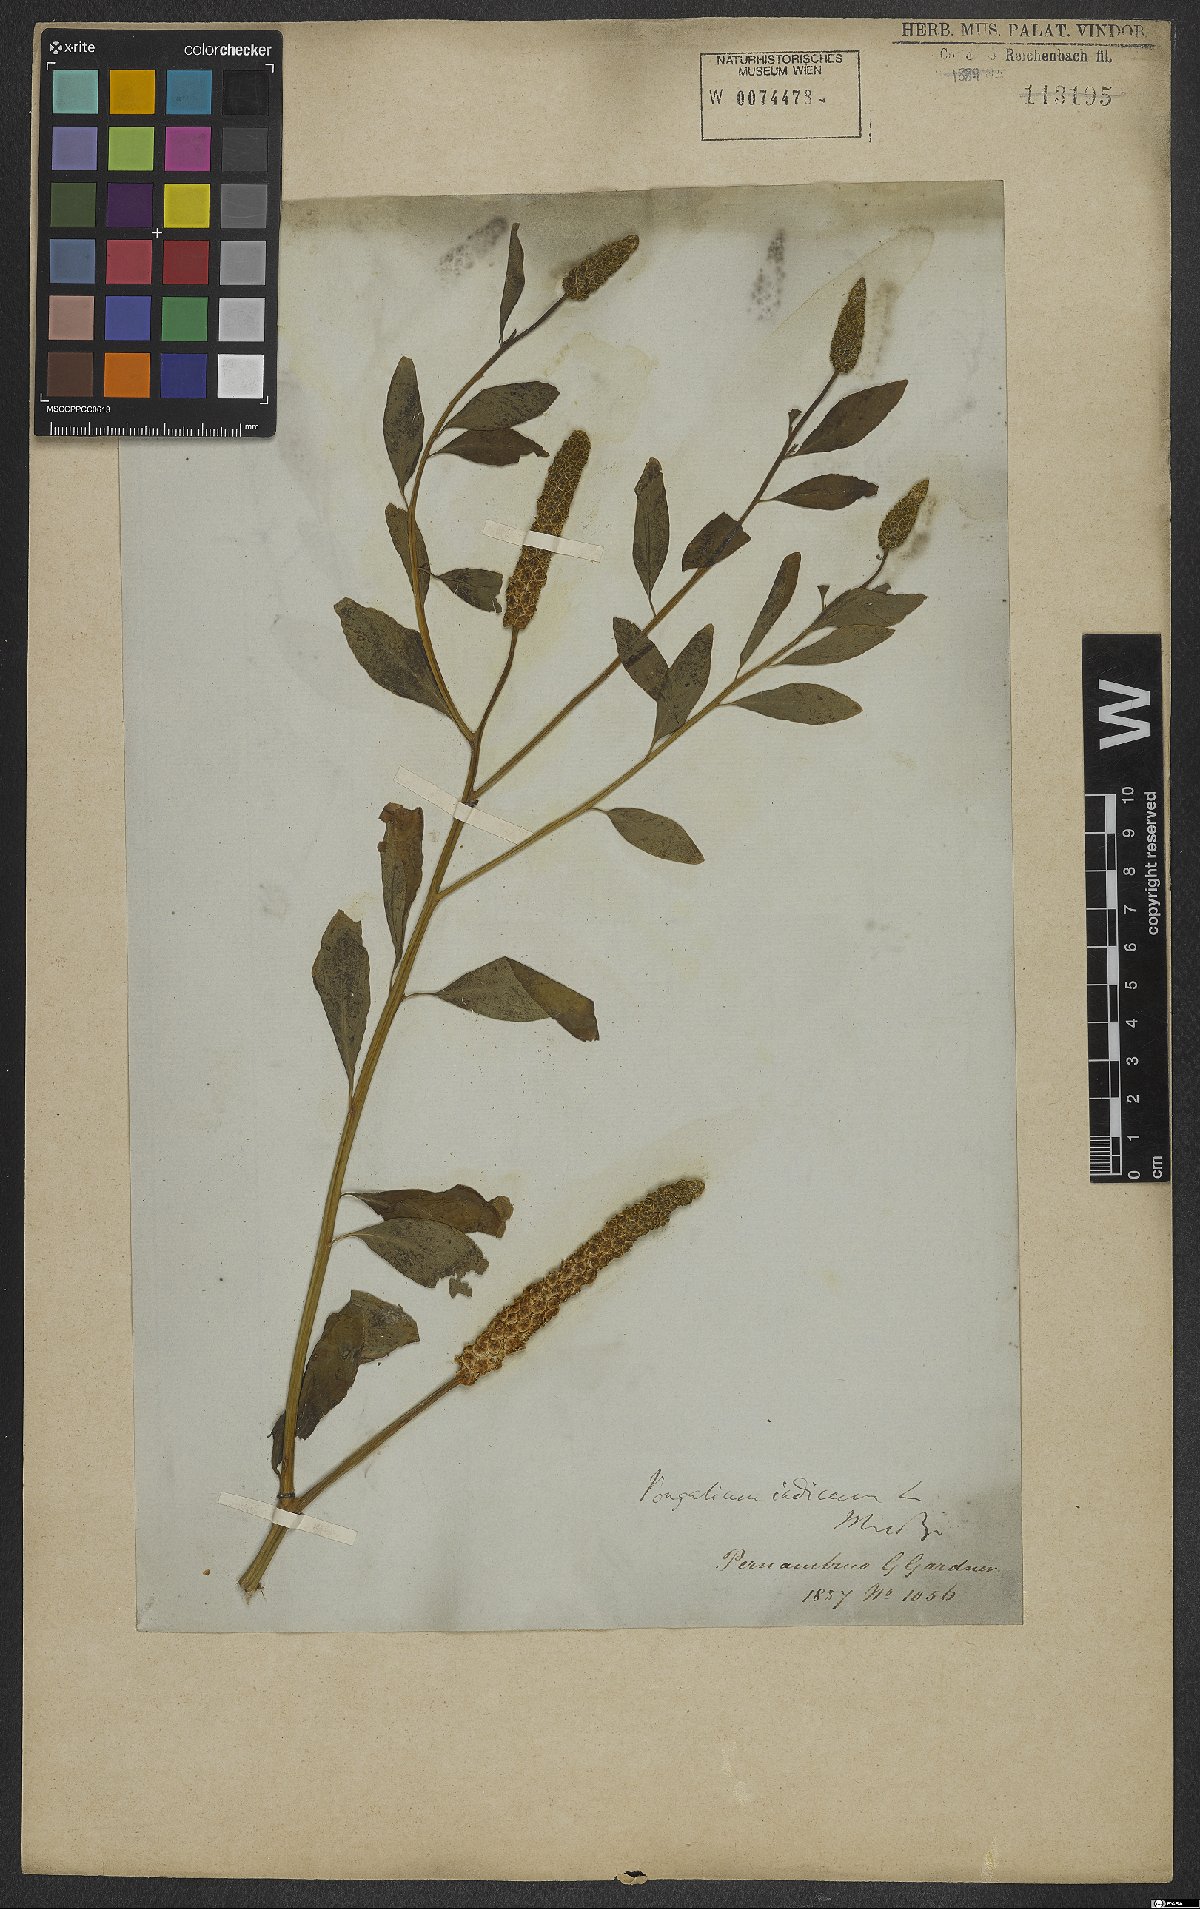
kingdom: Plantae
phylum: Tracheophyta
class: Magnoliopsida
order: Solanales
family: Sphenocleaceae
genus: Sphenoclea
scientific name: Sphenoclea zeylanica
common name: Chickenspike
